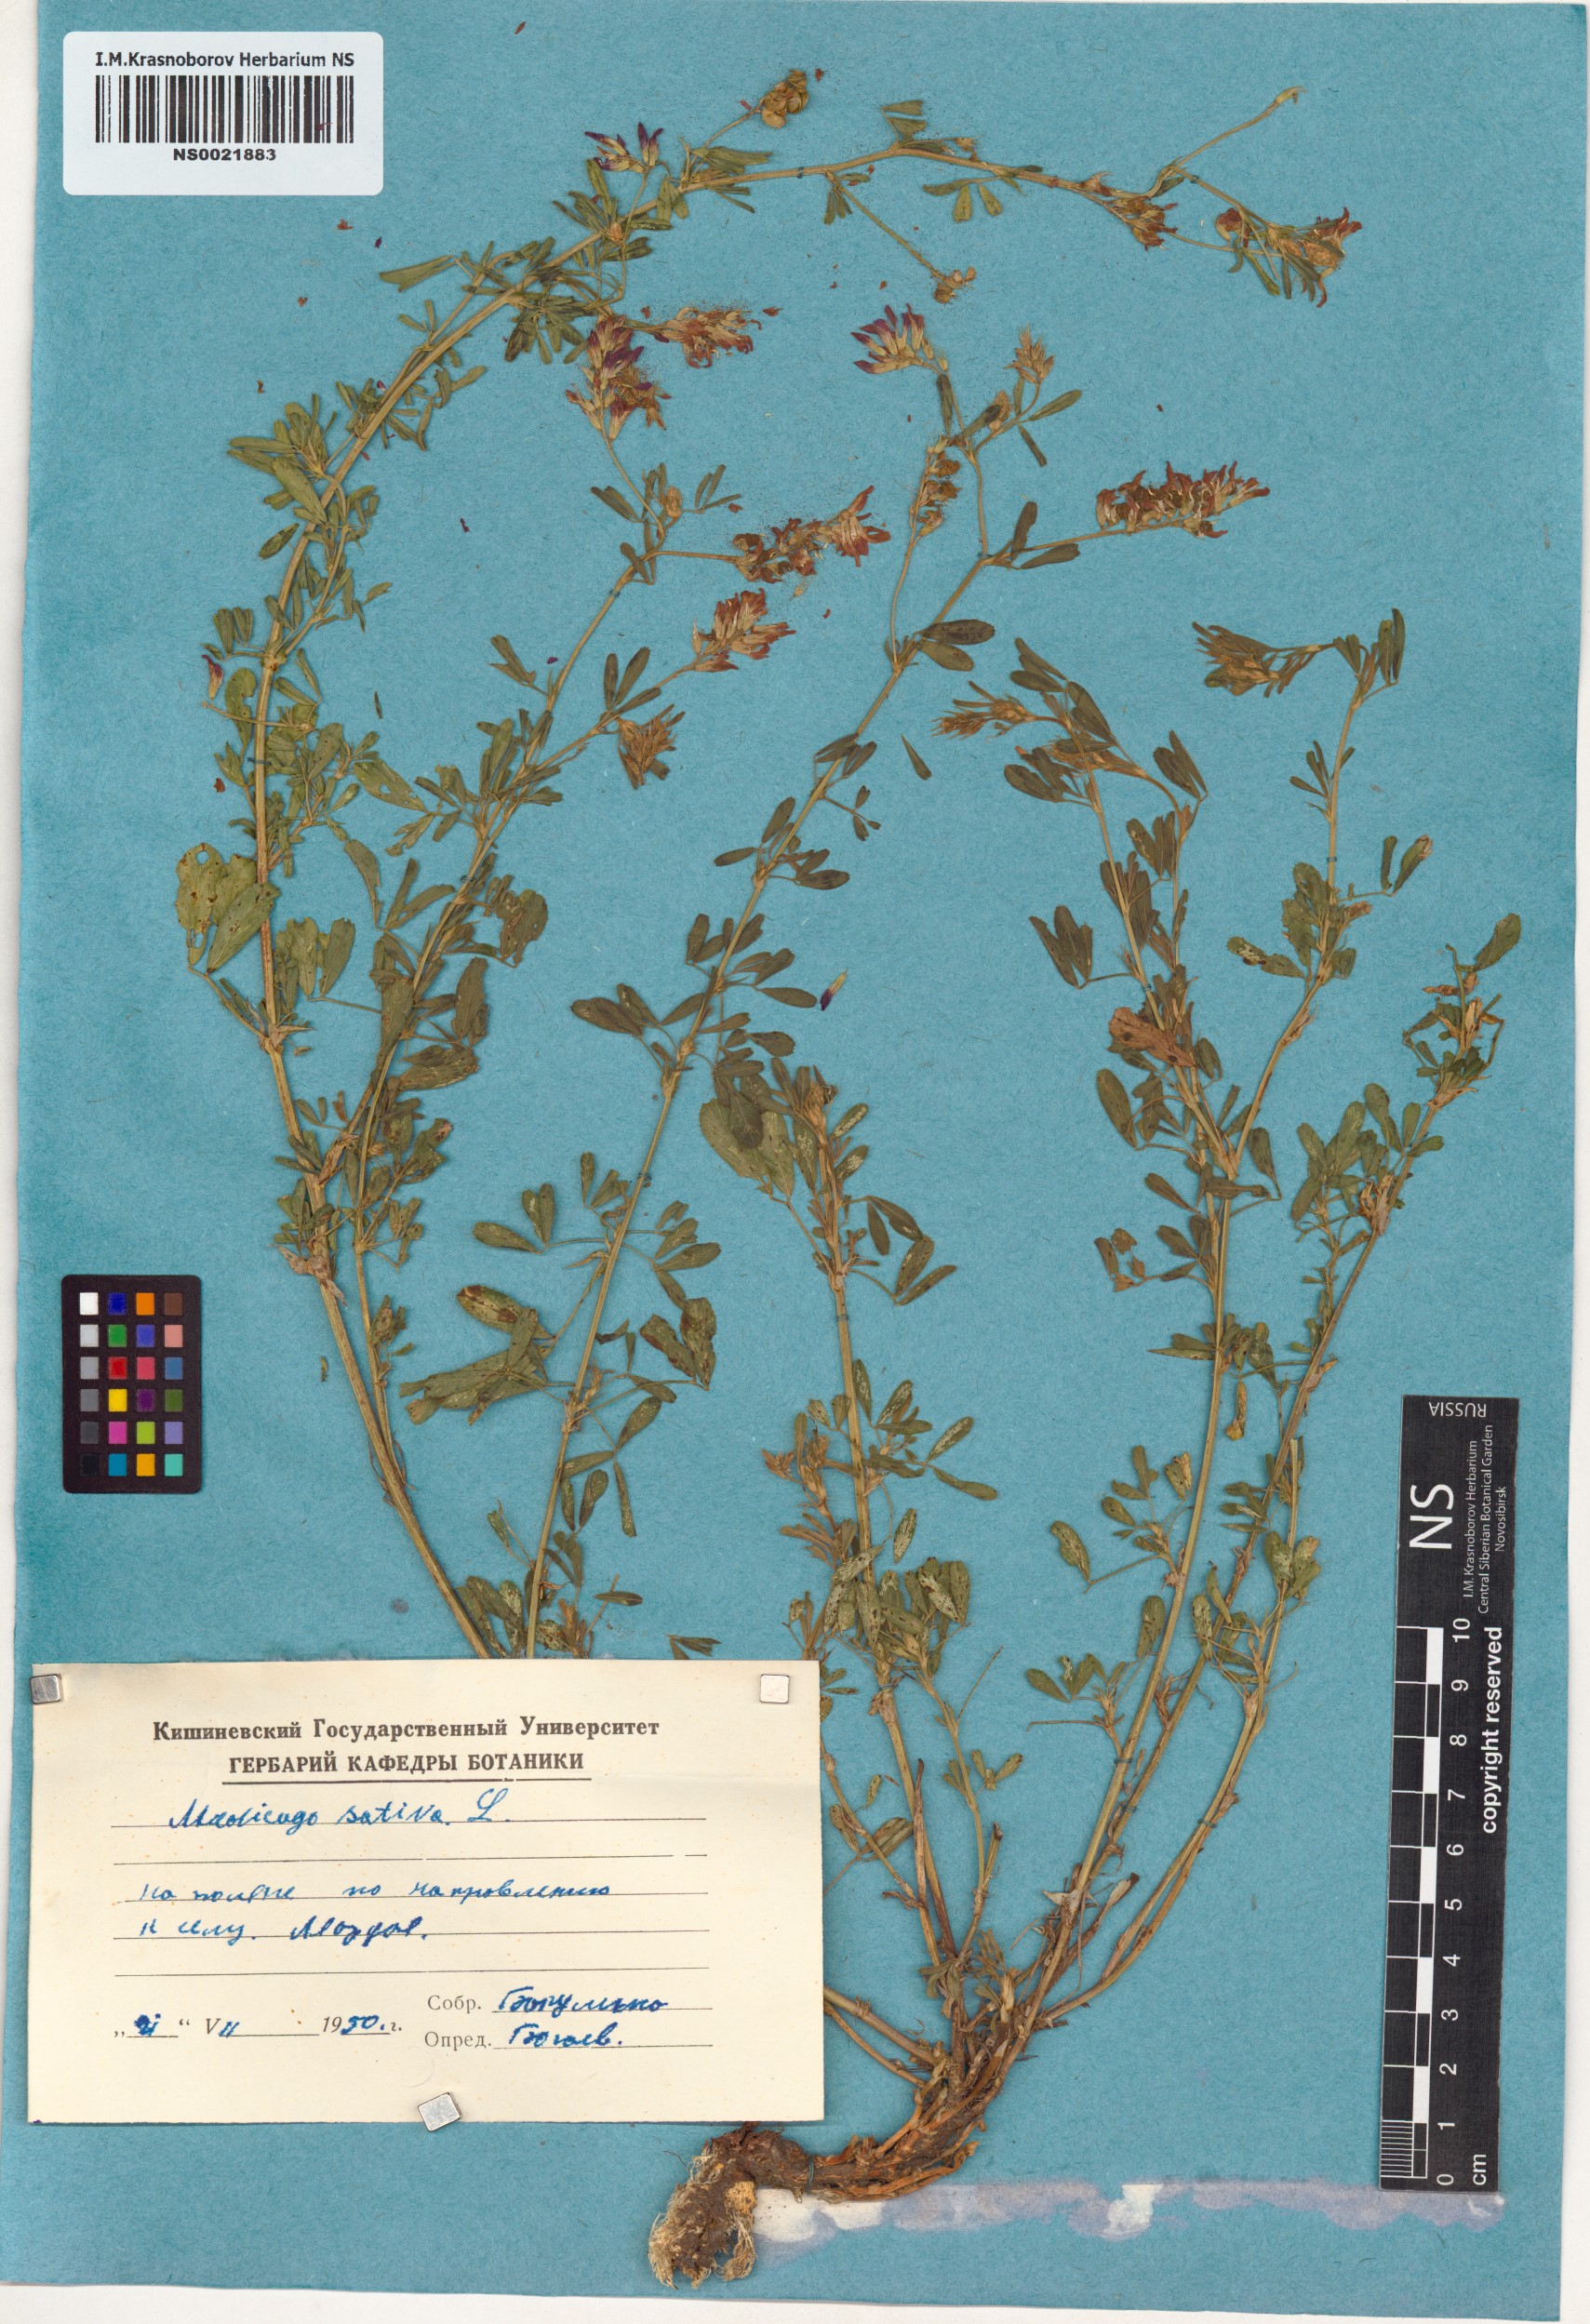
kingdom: Plantae
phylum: Tracheophyta
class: Magnoliopsida
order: Fabales
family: Fabaceae
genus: Medicago
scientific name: Medicago sativa
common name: Alfalfa
